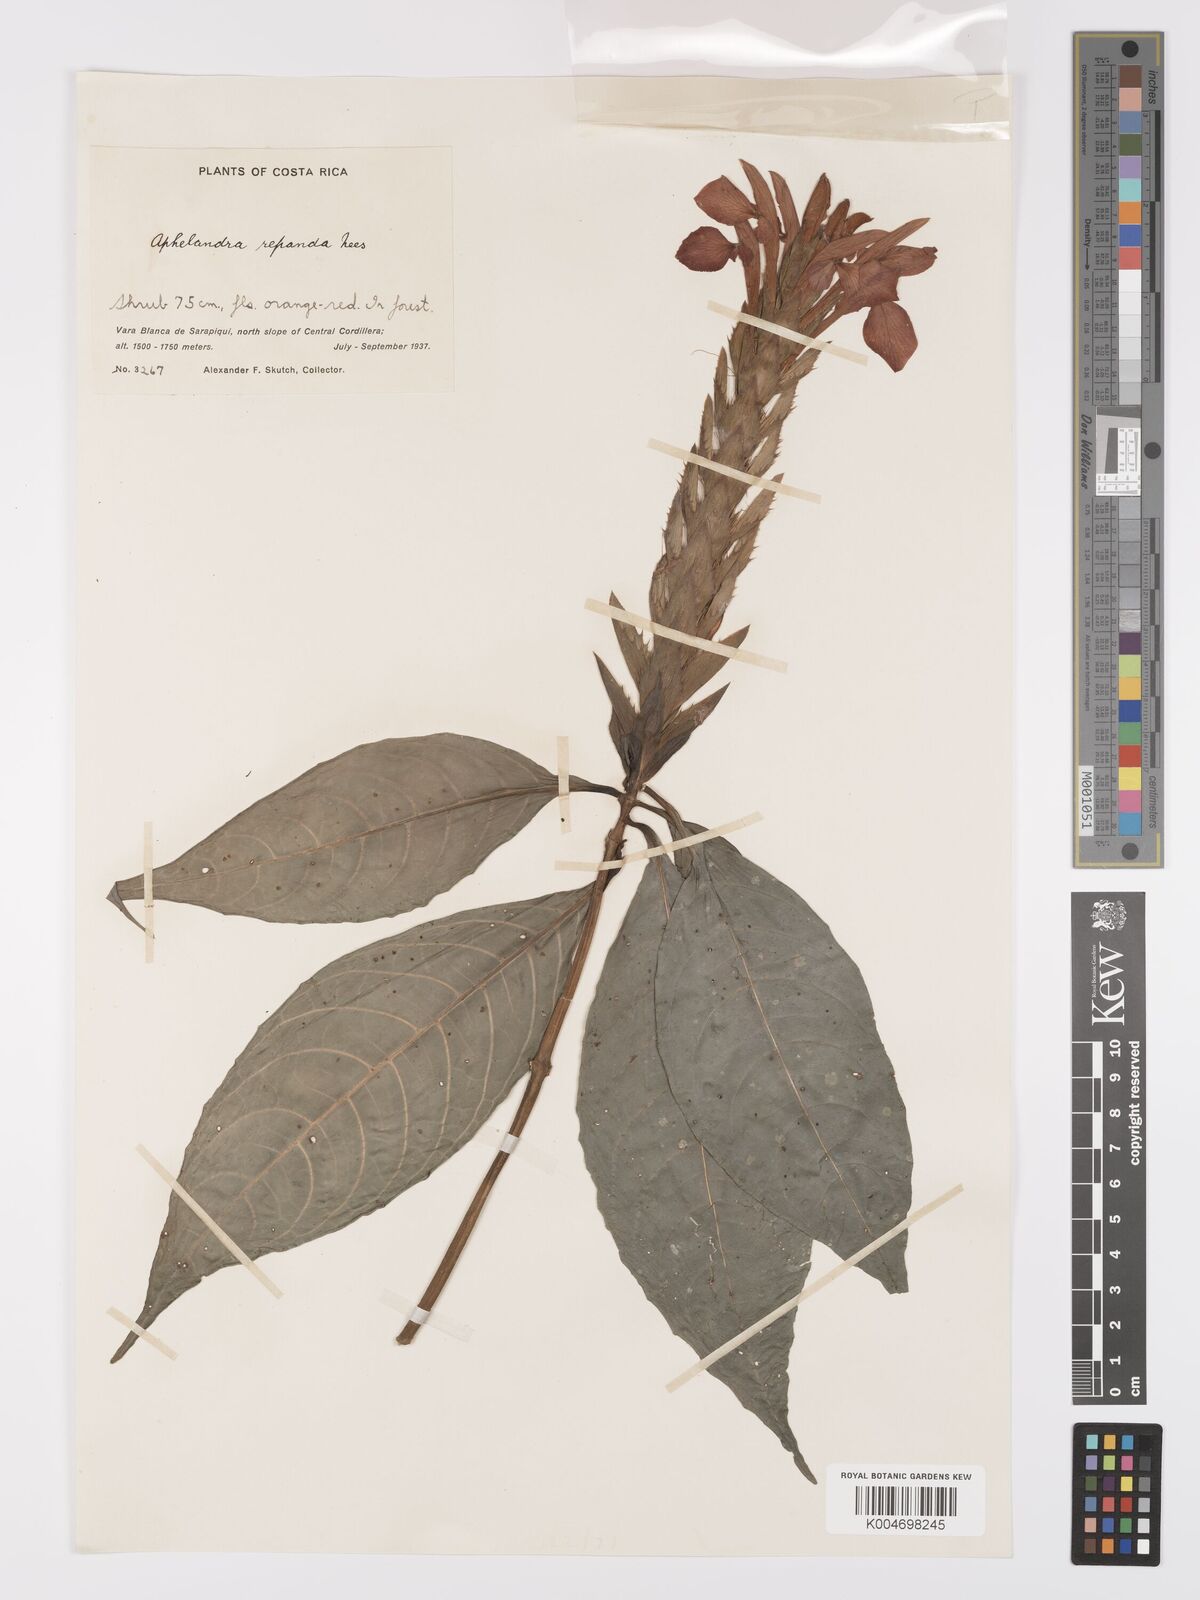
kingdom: Plantae
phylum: Tracheophyta
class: Magnoliopsida
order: Lamiales
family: Acanthaceae
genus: Aphelandra
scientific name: Aphelandra aurantiaca
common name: Fiery spike
